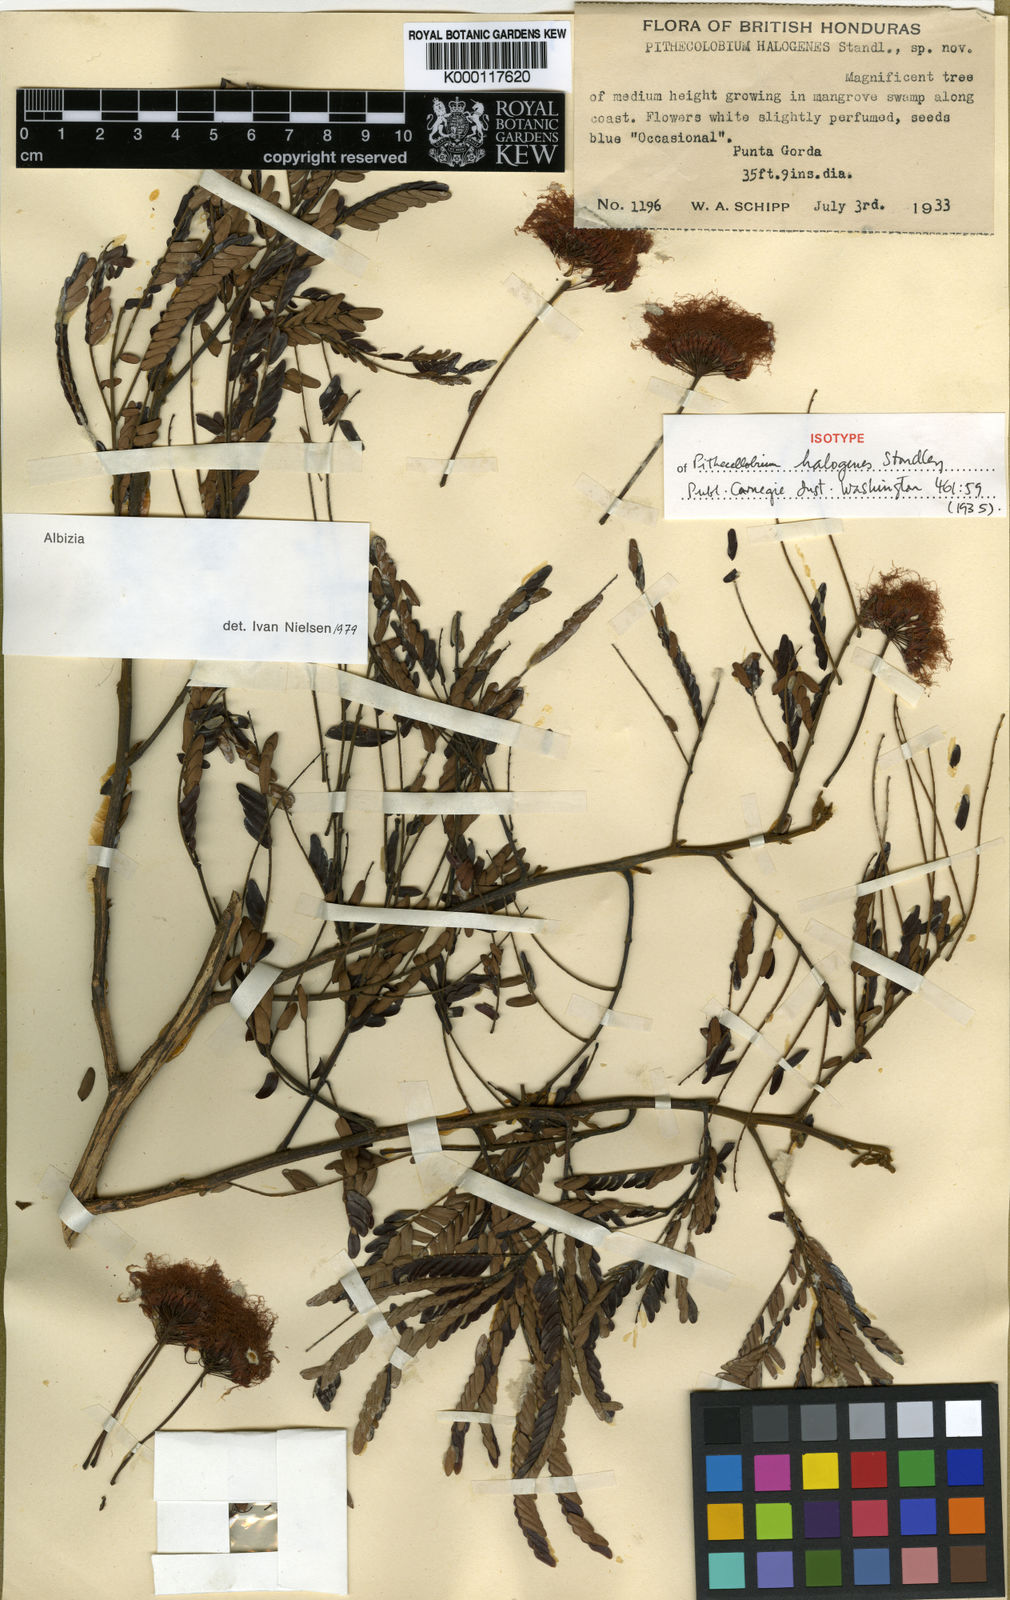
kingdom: Plantae
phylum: Tracheophyta
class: Magnoliopsida
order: Fabales
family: Fabaceae
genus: Jupunba
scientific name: Jupunba idiopoda
